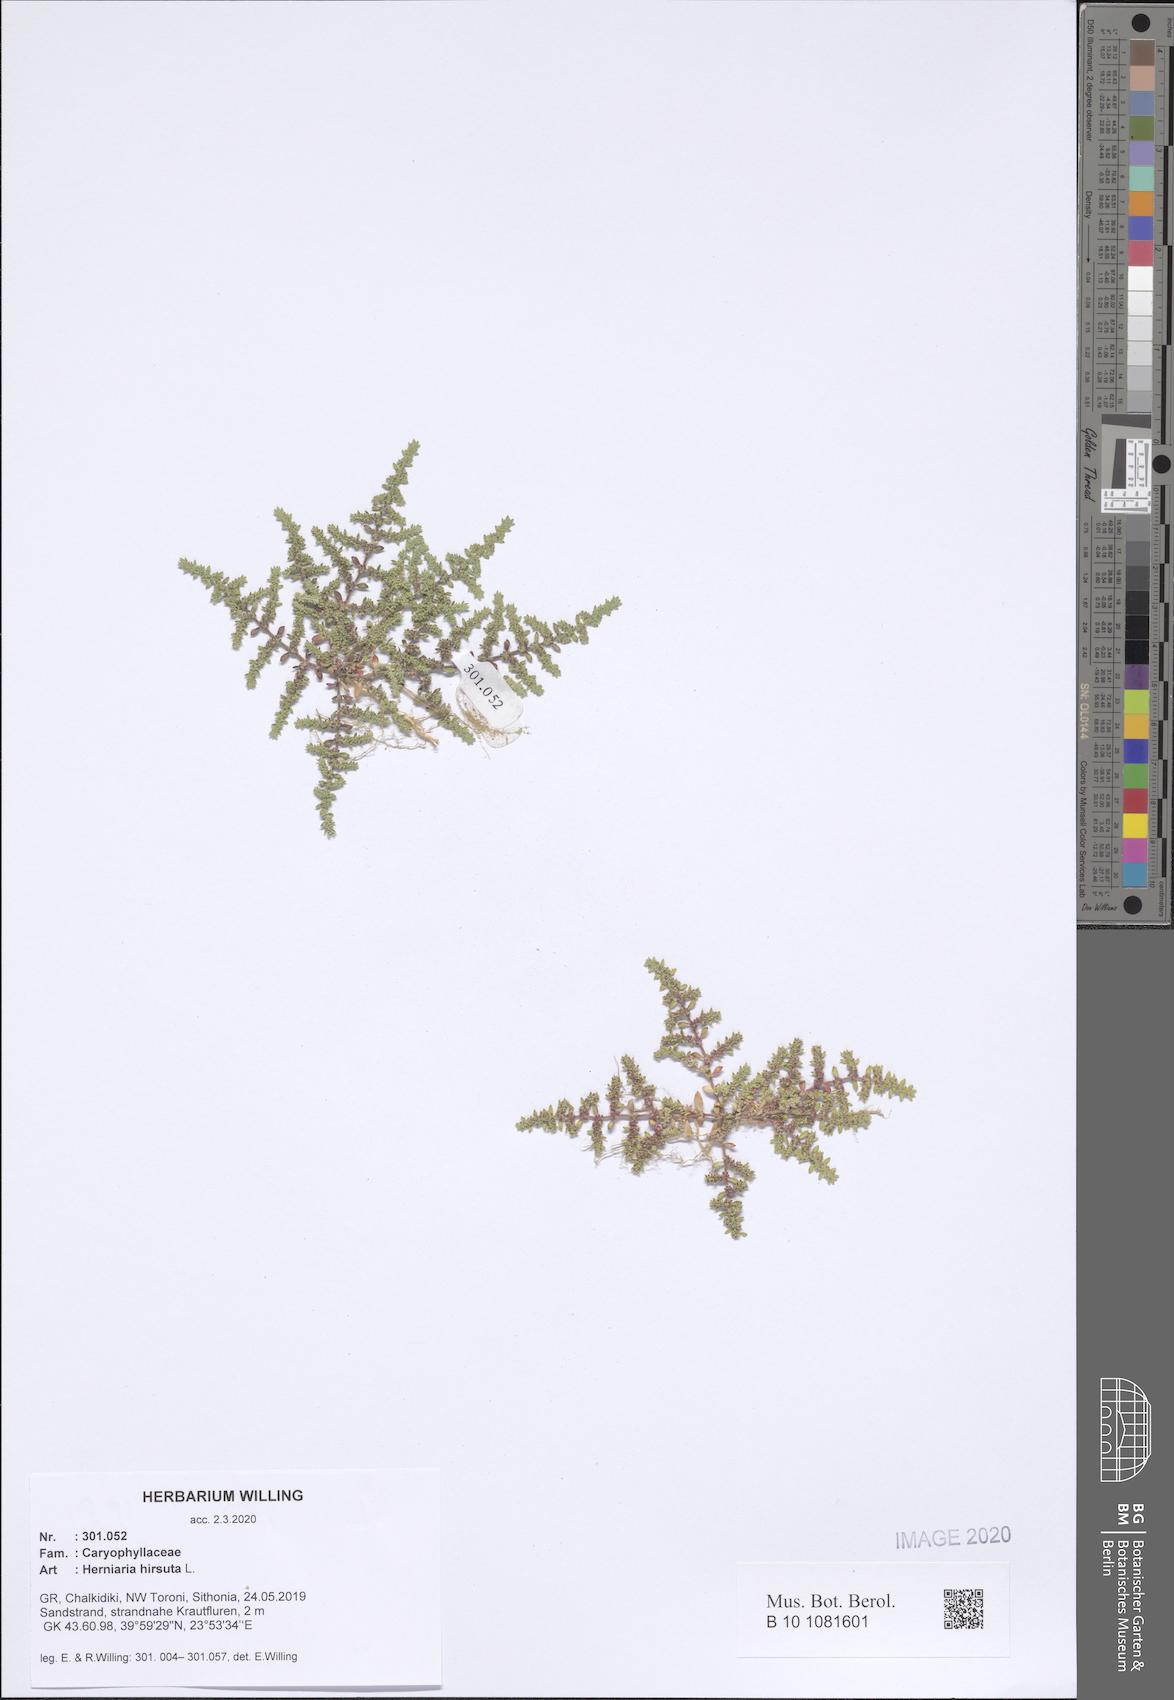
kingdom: Plantae
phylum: Tracheophyta
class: Magnoliopsida
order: Caryophyllales
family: Caryophyllaceae
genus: Herniaria
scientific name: Herniaria hirsuta
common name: Hairy rupturewort
